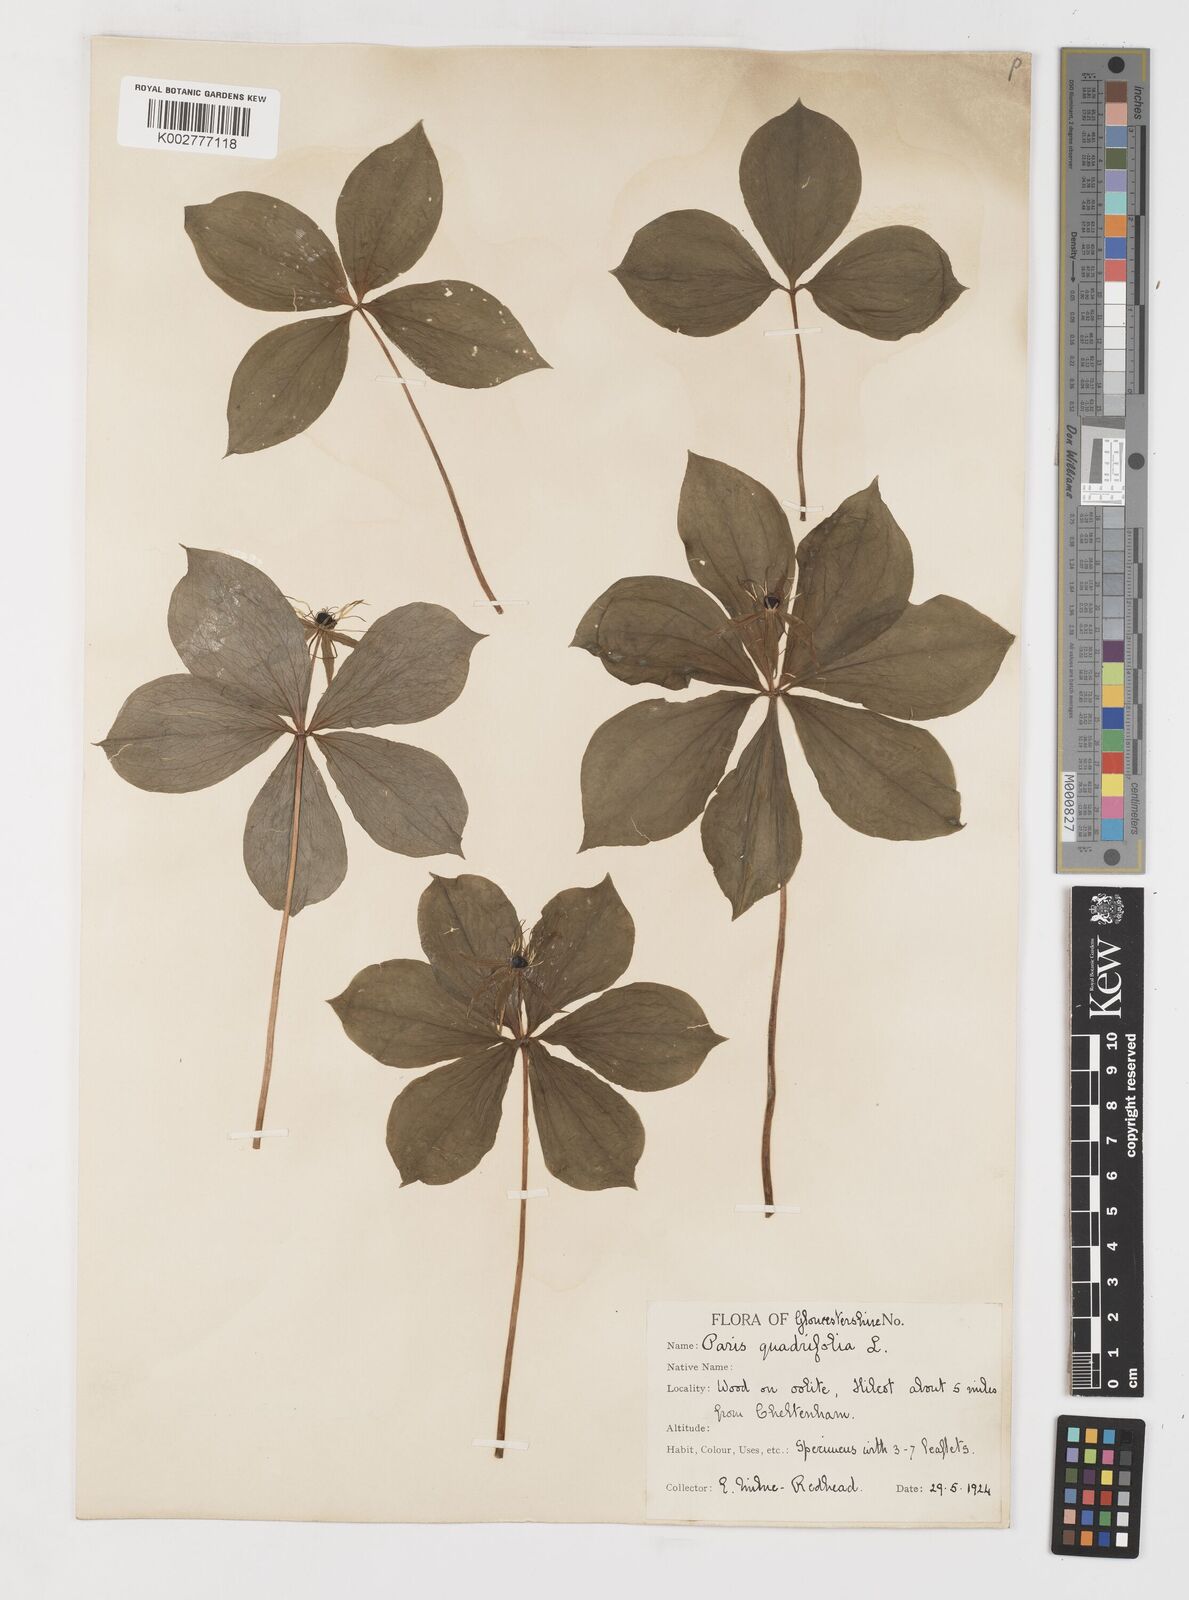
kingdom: Plantae
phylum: Tracheophyta
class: Liliopsida
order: Liliales
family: Melanthiaceae
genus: Paris
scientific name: Paris quadrifolia
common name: Herb-paris
